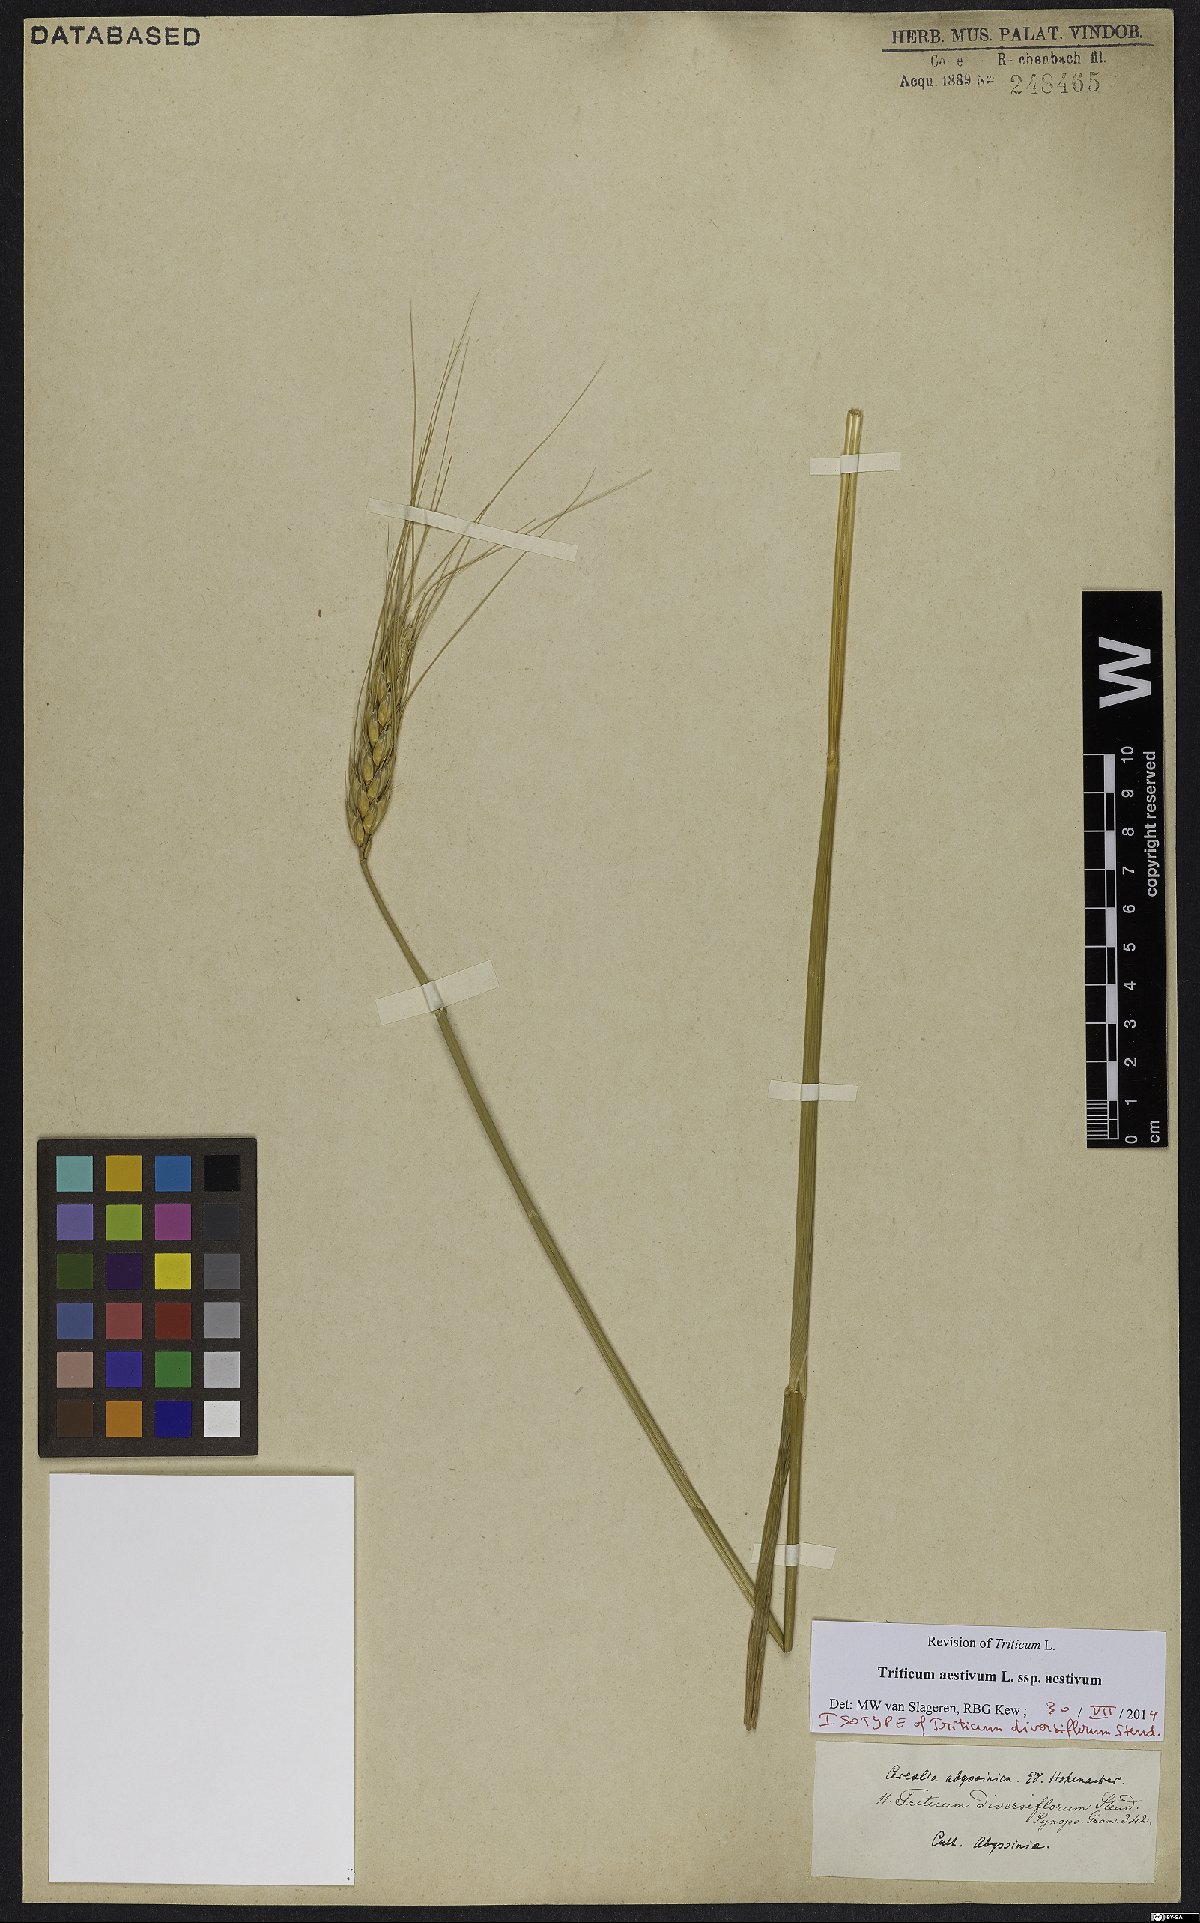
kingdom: Plantae
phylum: Tracheophyta
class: Liliopsida
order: Poales
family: Poaceae
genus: Triticum
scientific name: Triticum aestivum
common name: Common wheat
